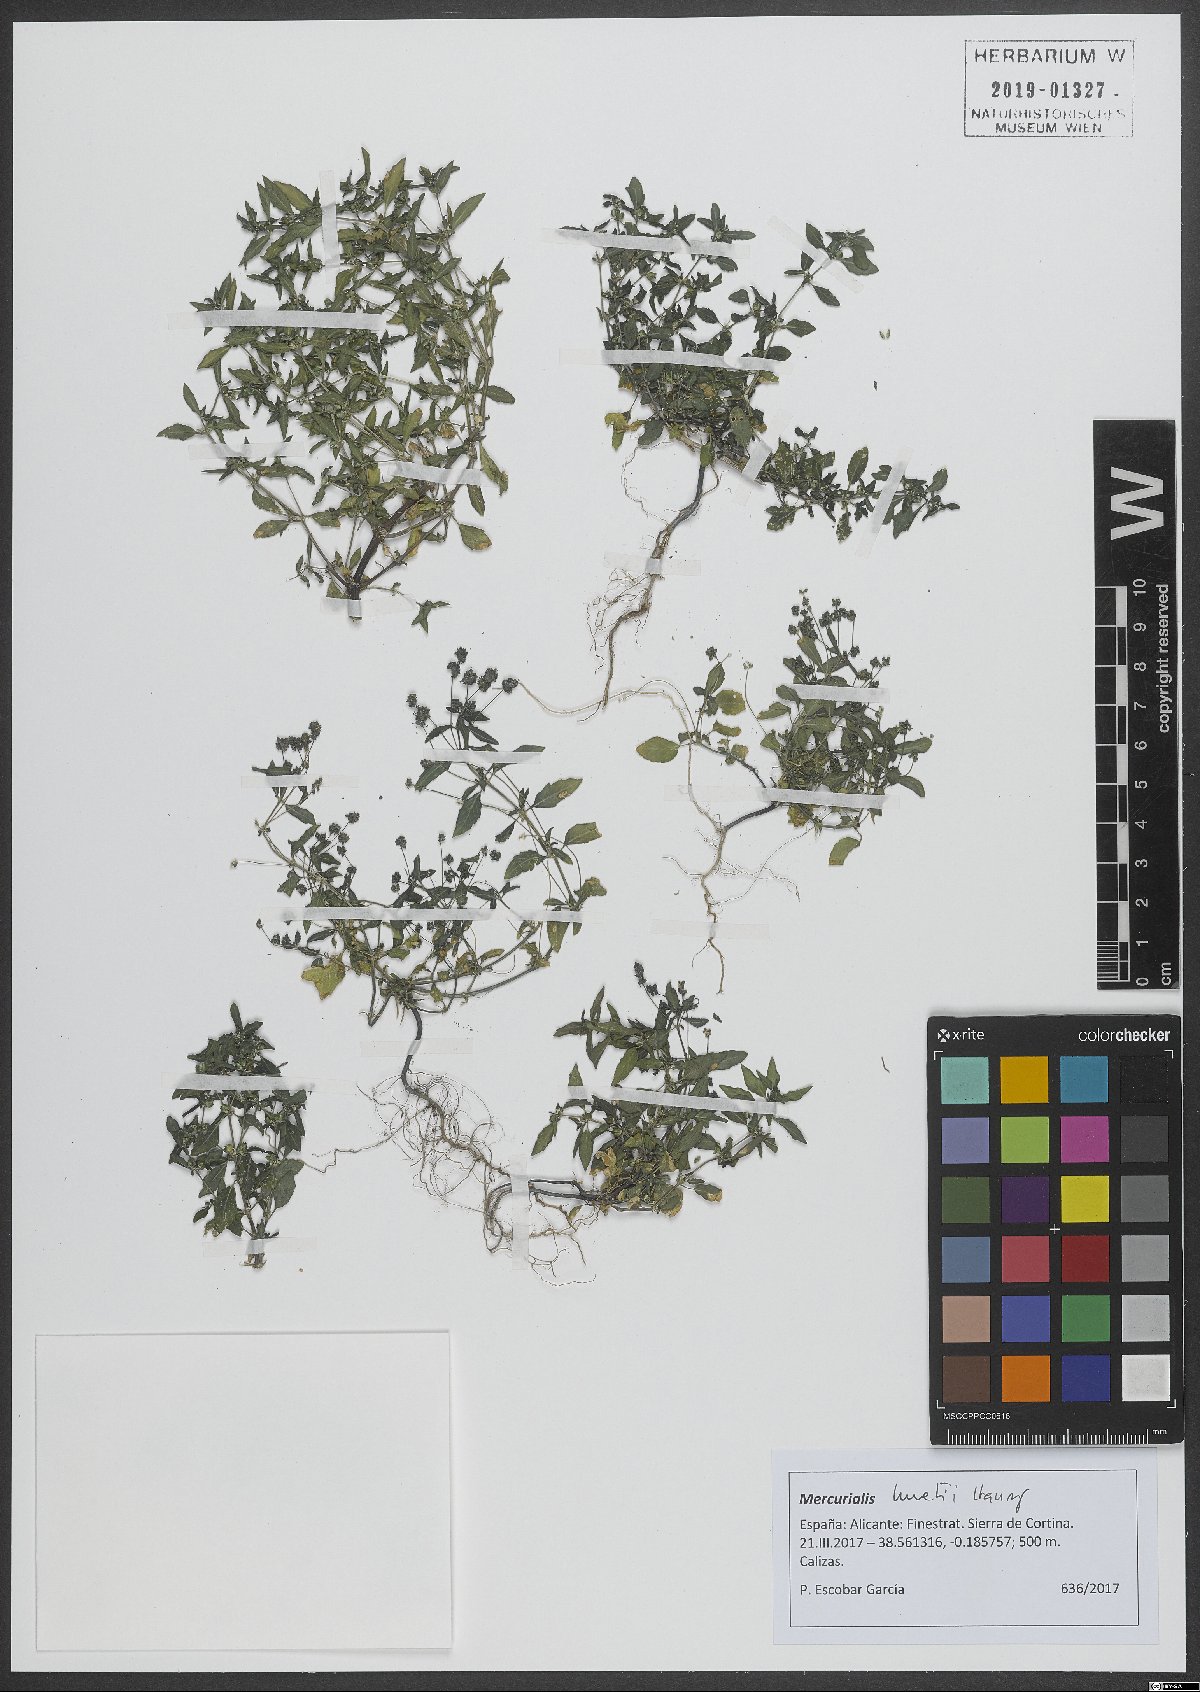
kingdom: Plantae
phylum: Tracheophyta
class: Magnoliopsida
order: Malpighiales
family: Euphorbiaceae
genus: Mercurialis
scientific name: Mercurialis huetii
